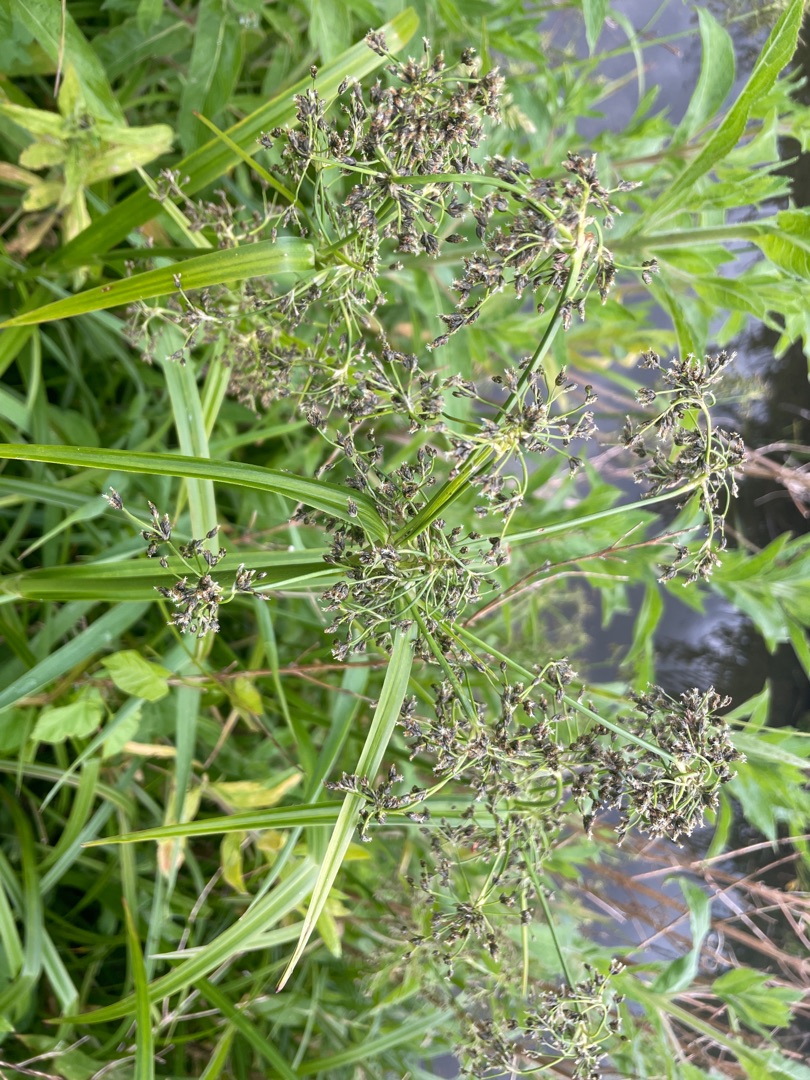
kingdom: Plantae
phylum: Tracheophyta
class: Liliopsida
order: Poales
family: Cyperaceae
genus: Scirpus
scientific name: Scirpus sylvaticus
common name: Skov-kogleaks
